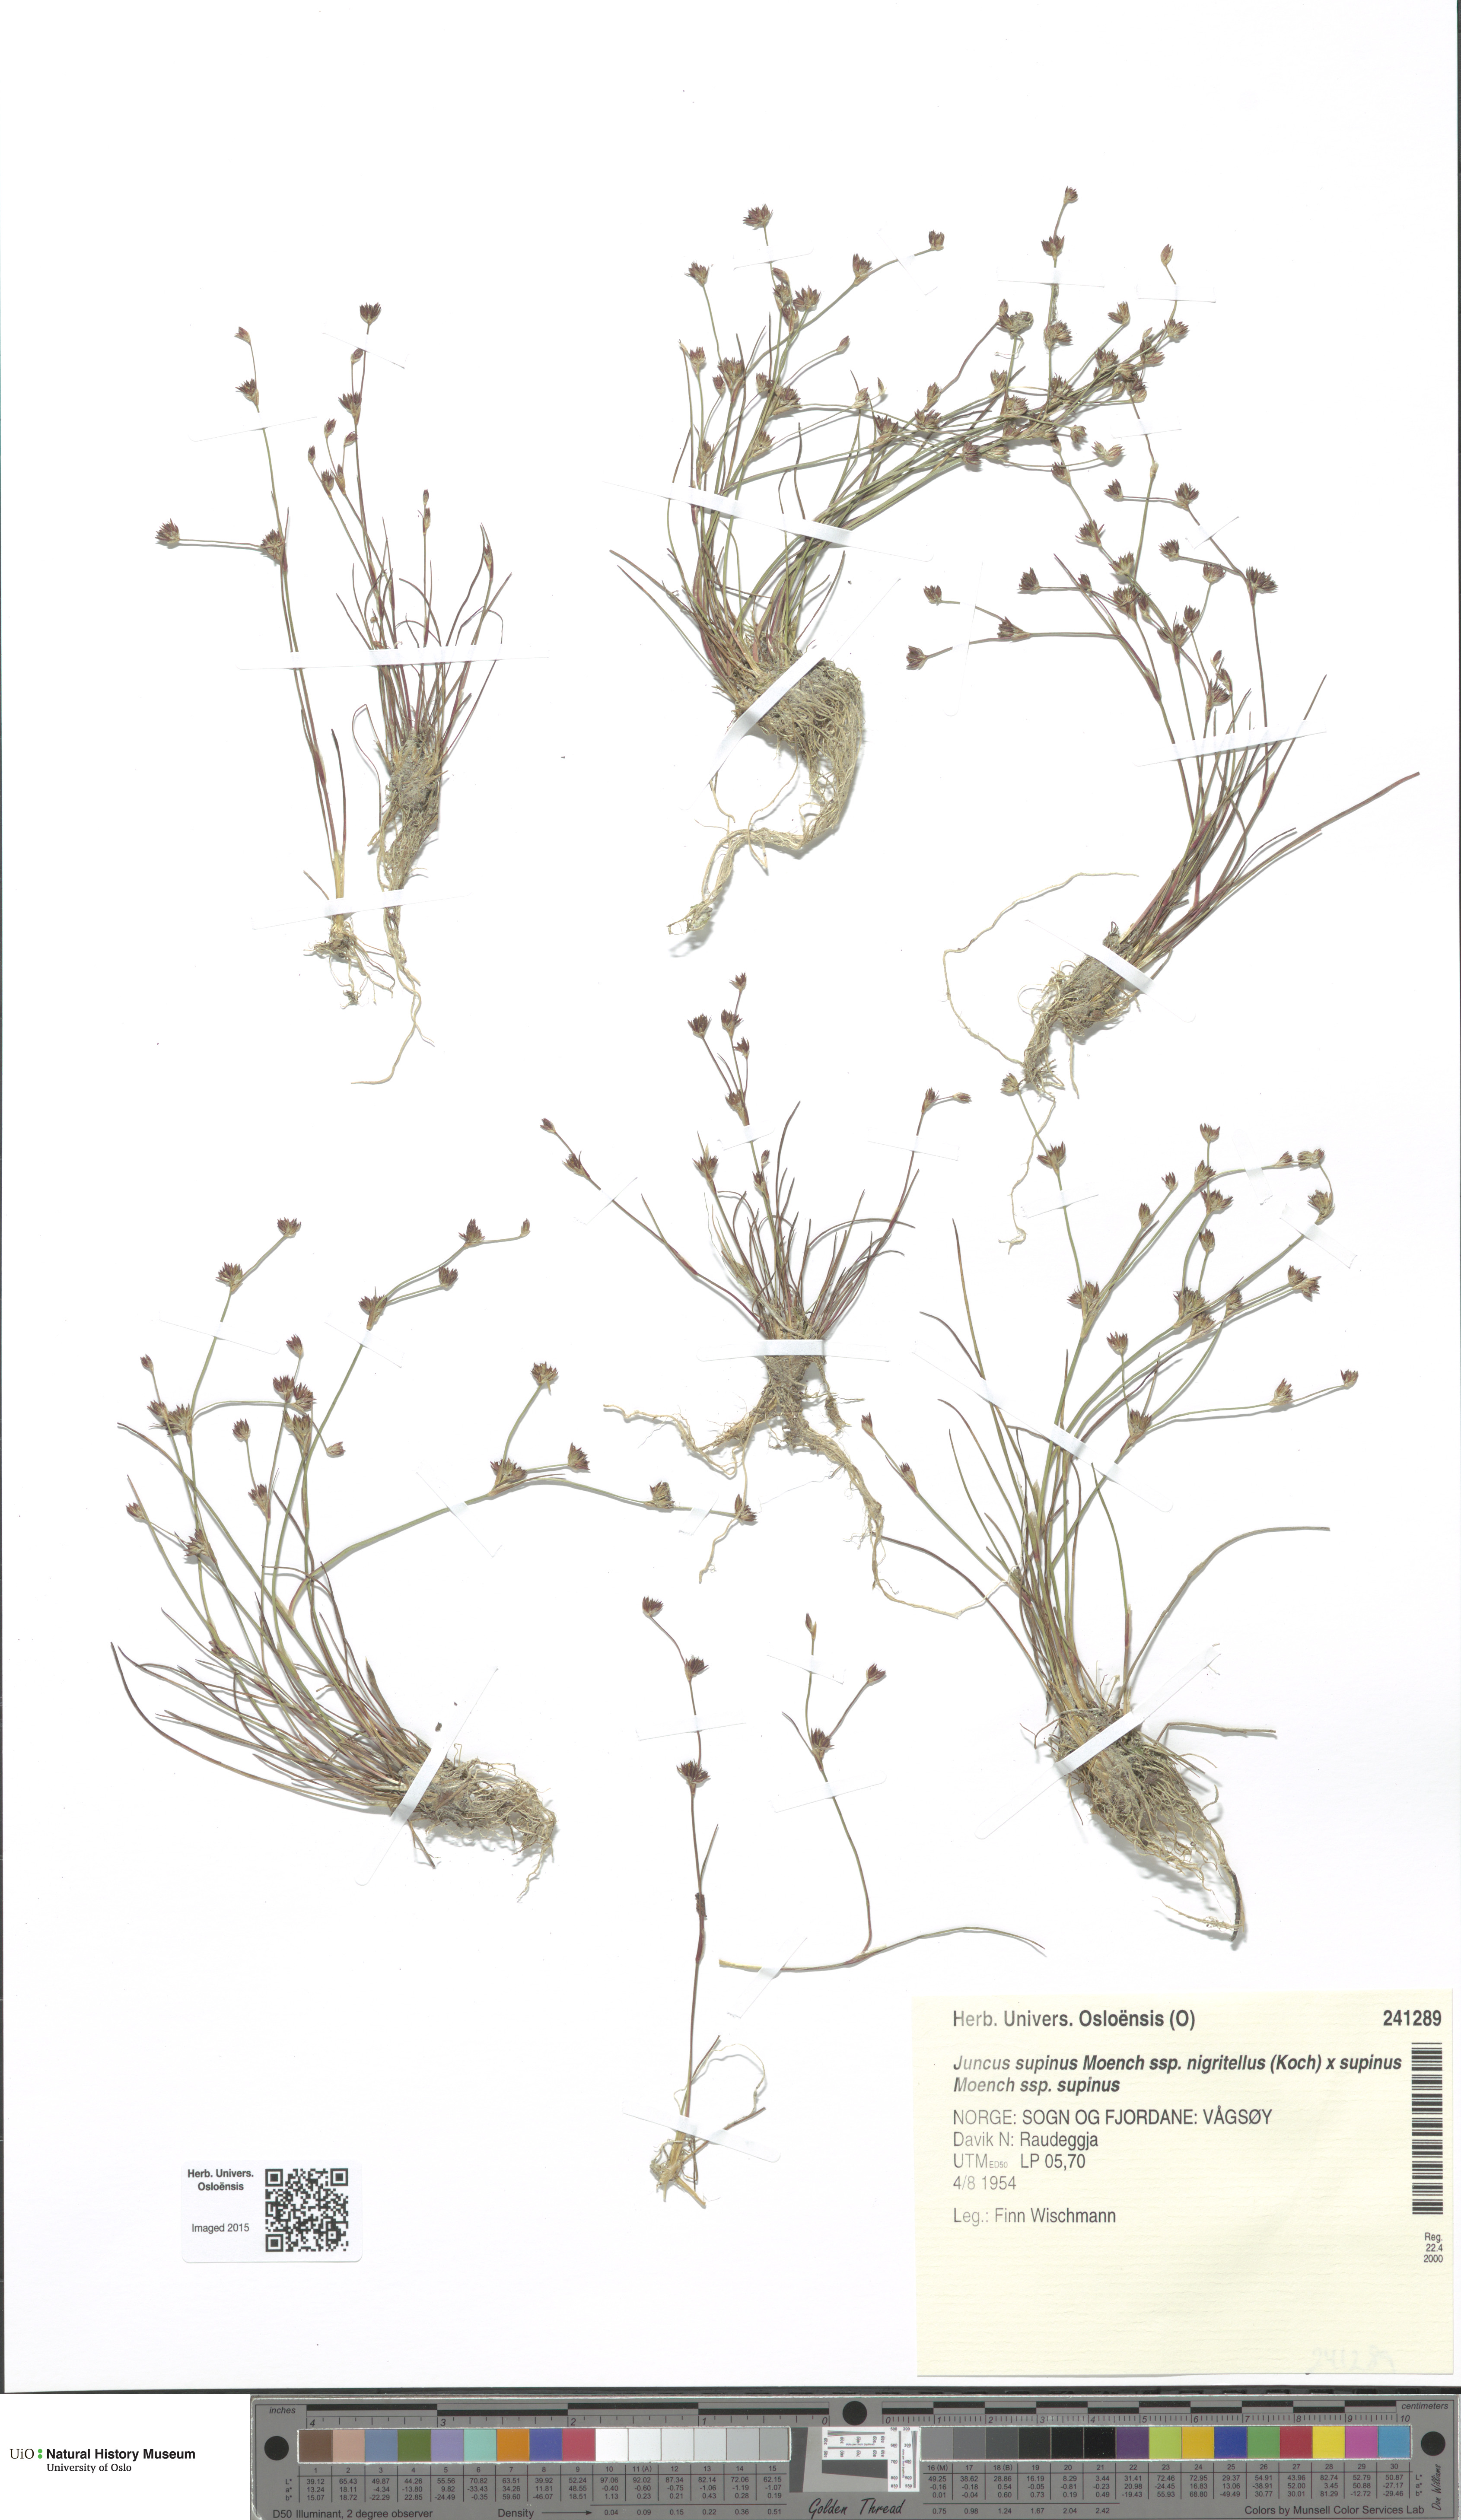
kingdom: Plantae
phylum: Tracheophyta
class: Liliopsida
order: Poales
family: Juncaceae
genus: Juncus
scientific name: Juncus
